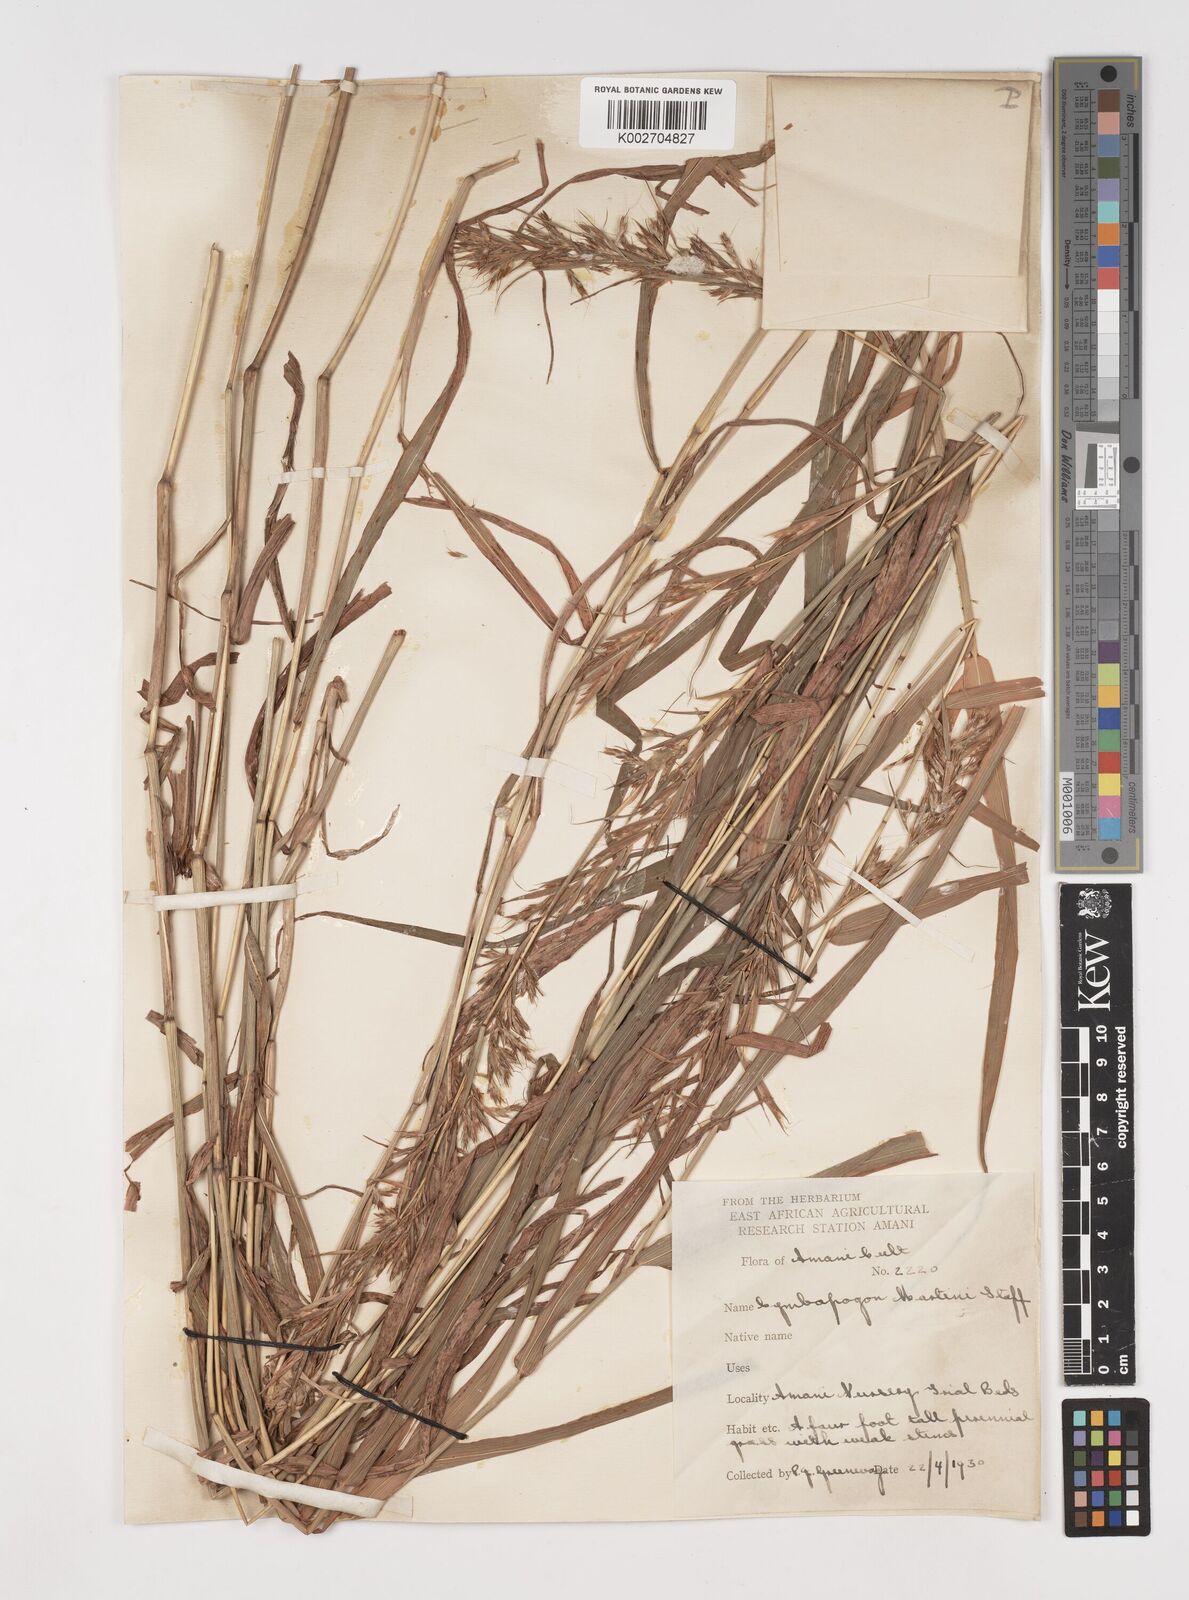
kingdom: Plantae
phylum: Tracheophyta
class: Liliopsida
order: Poales
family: Poaceae
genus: Cymbopogon
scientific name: Cymbopogon martini
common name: Ginger grass
